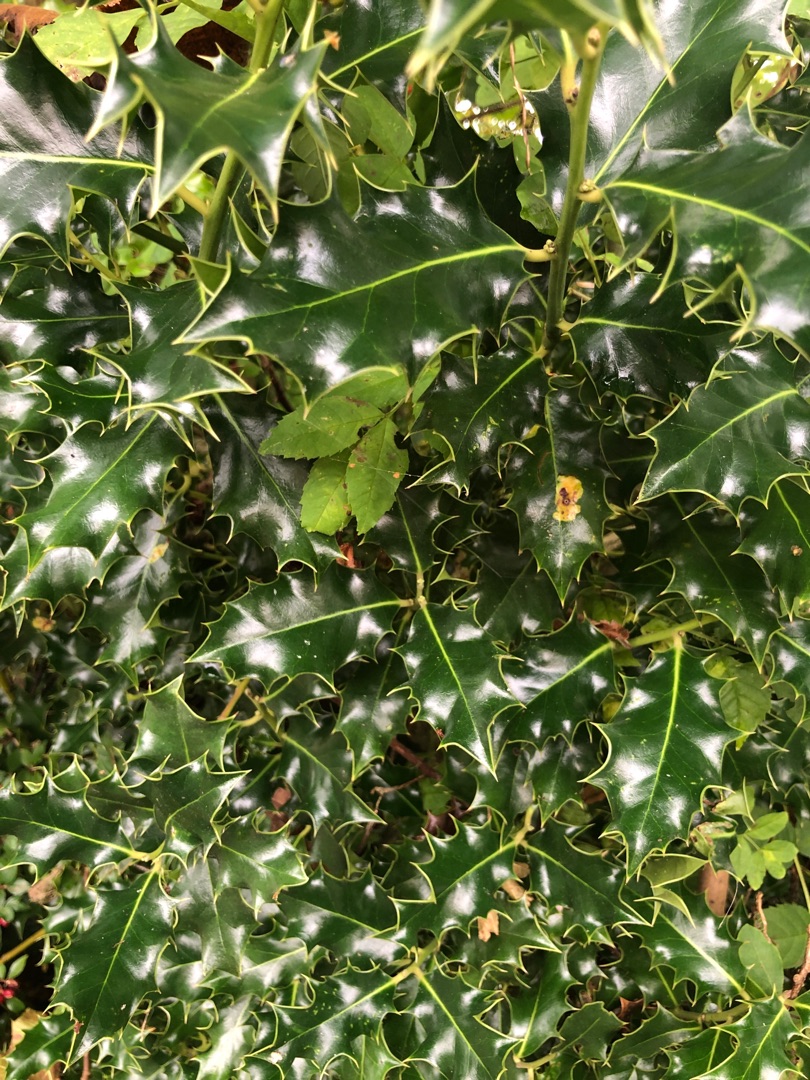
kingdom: Plantae
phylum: Tracheophyta
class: Magnoliopsida
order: Aquifoliales
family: Aquifoliaceae
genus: Ilex
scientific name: Ilex aquifolium
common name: Kristtorn
